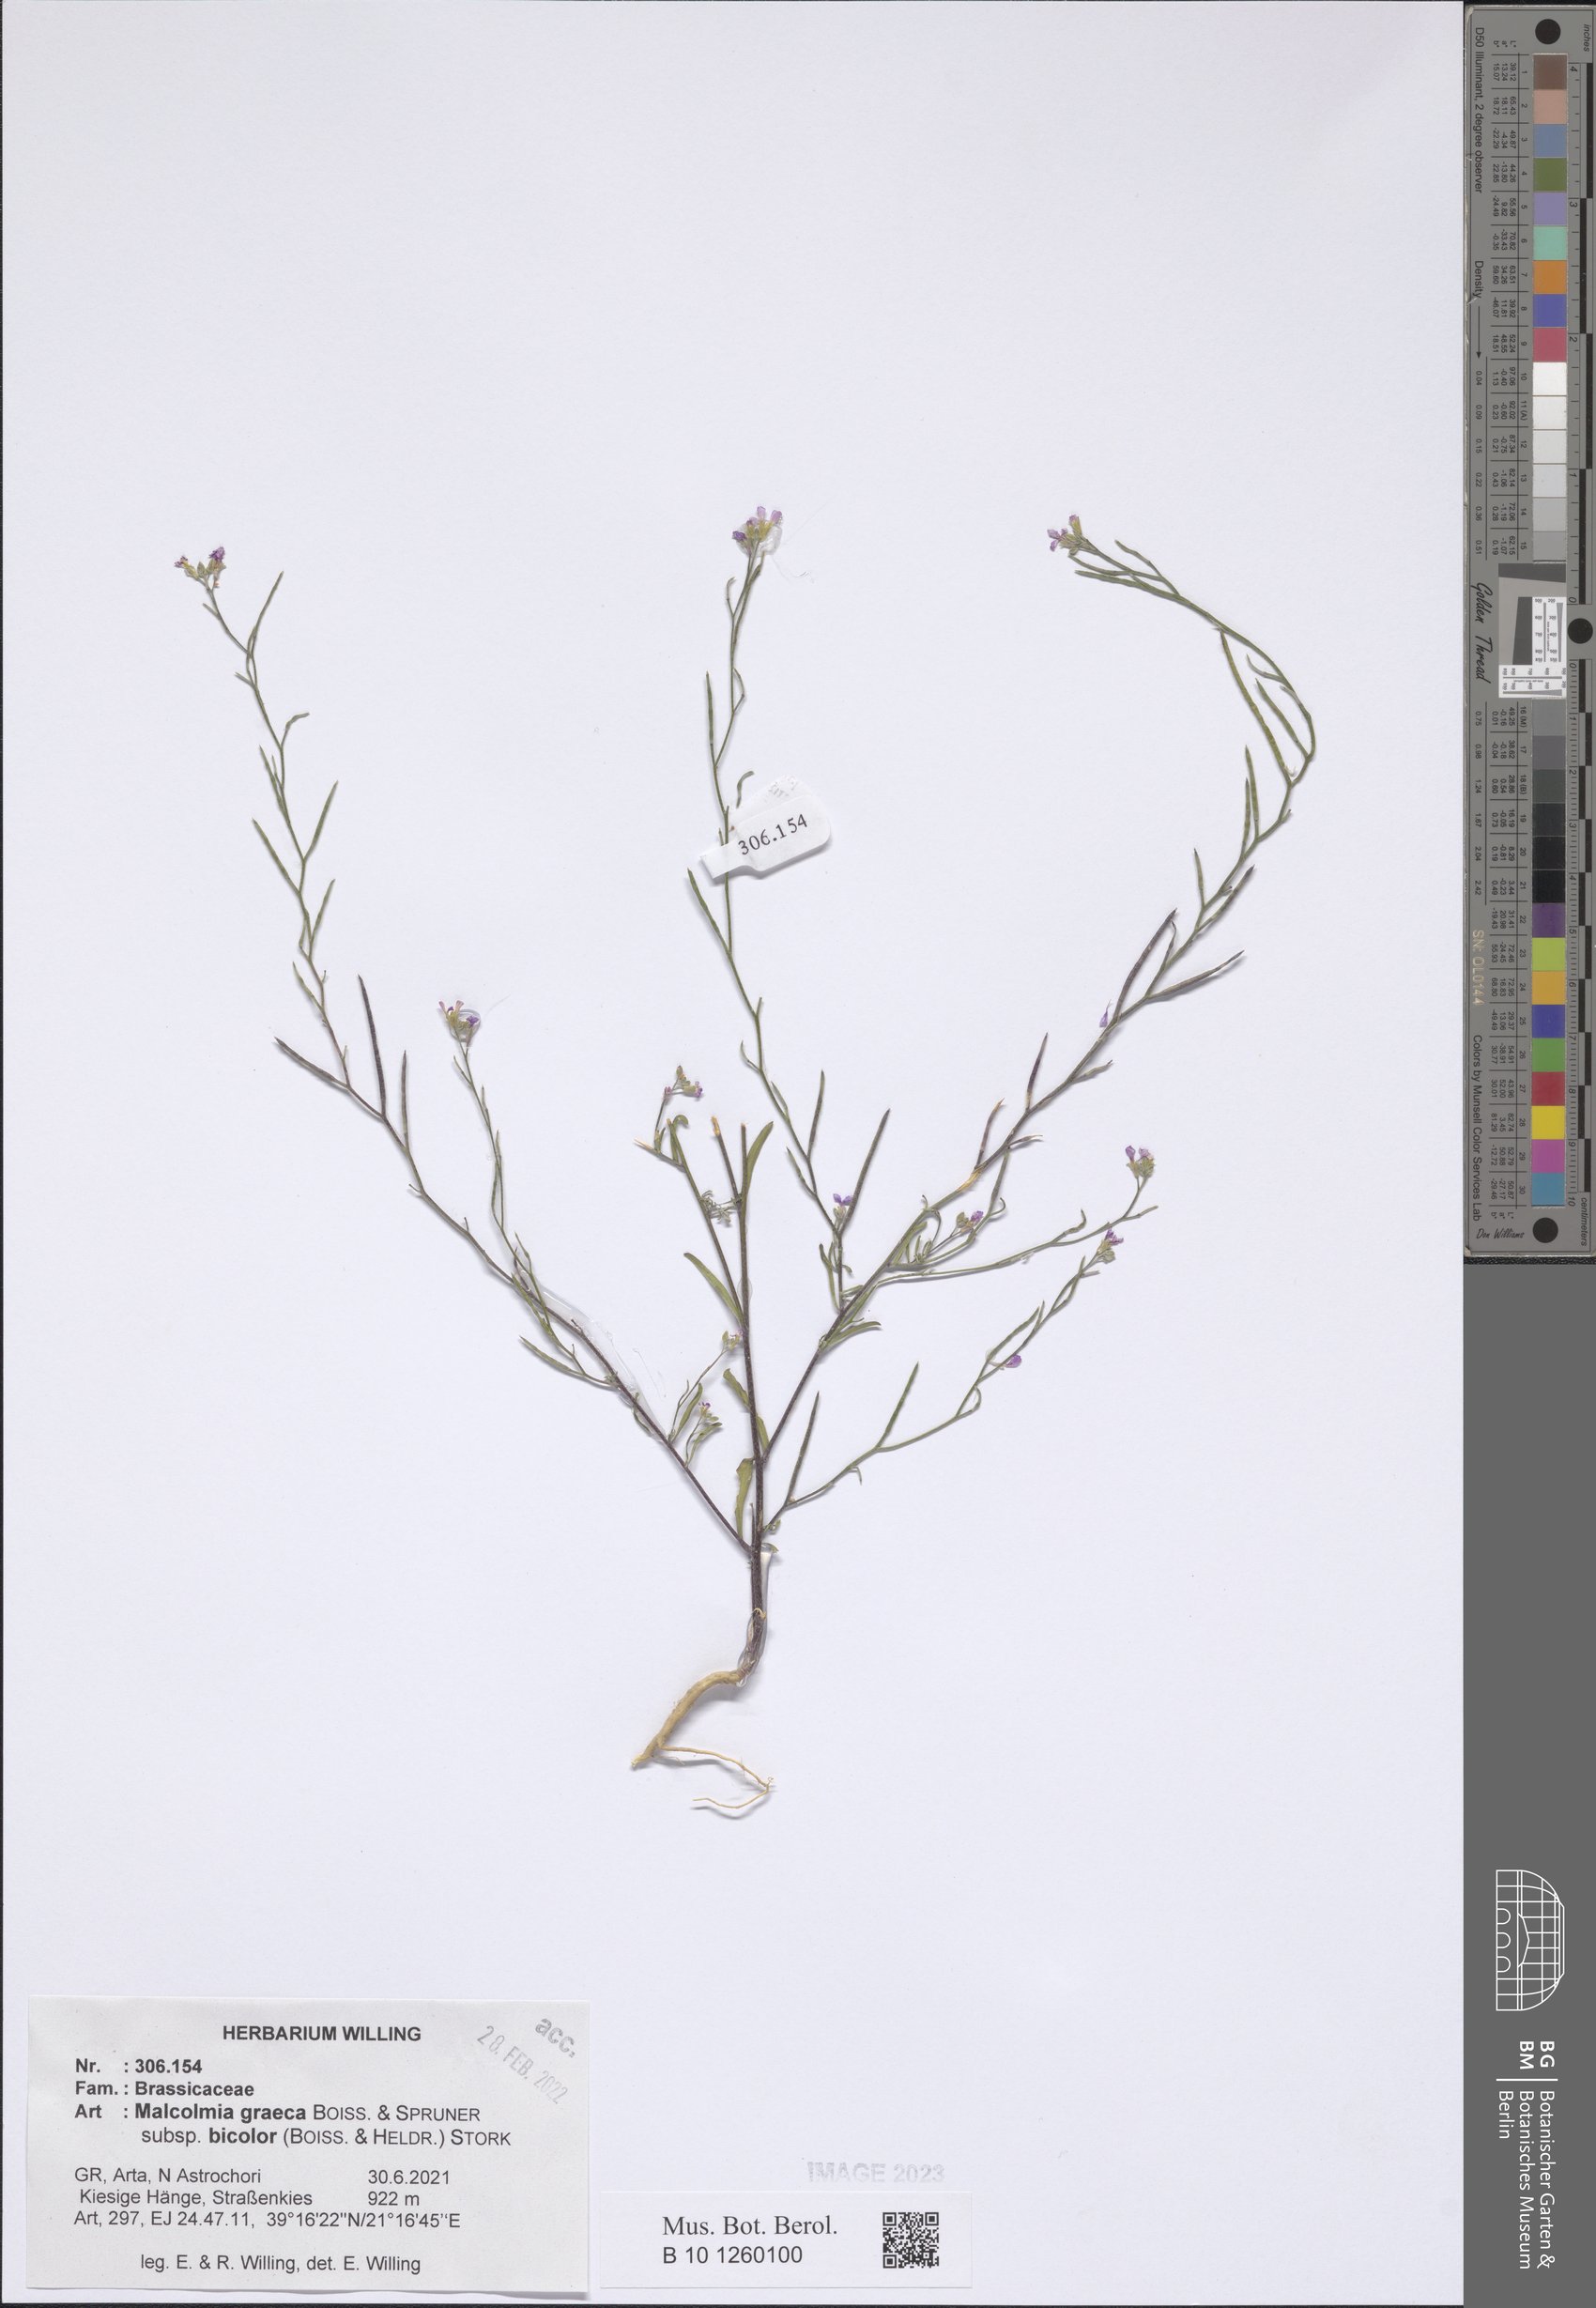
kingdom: Plantae
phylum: Tracheophyta
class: Magnoliopsida
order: Brassicales
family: Brassicaceae
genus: Malcolmia
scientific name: Malcolmia graeca
